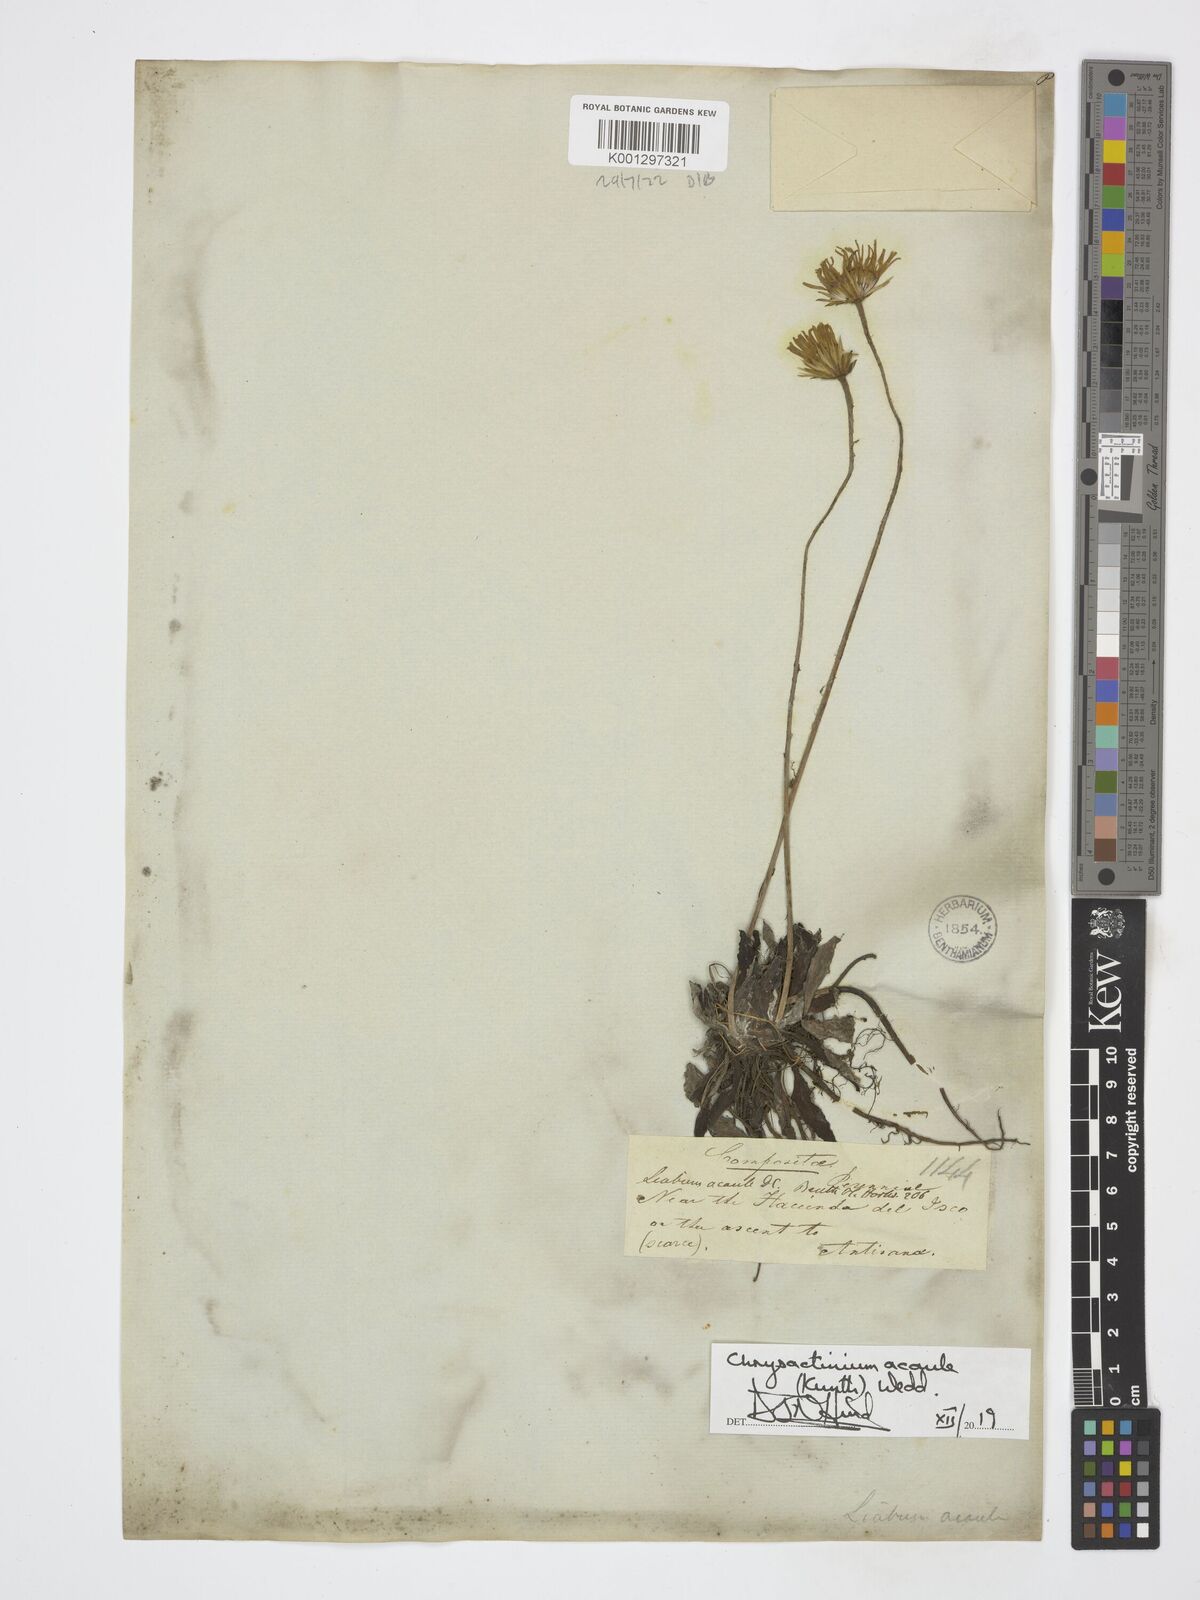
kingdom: Plantae
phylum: Tracheophyta
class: Magnoliopsida
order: Asterales
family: Asteraceae
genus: Chrysactinium
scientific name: Chrysactinium acaule
